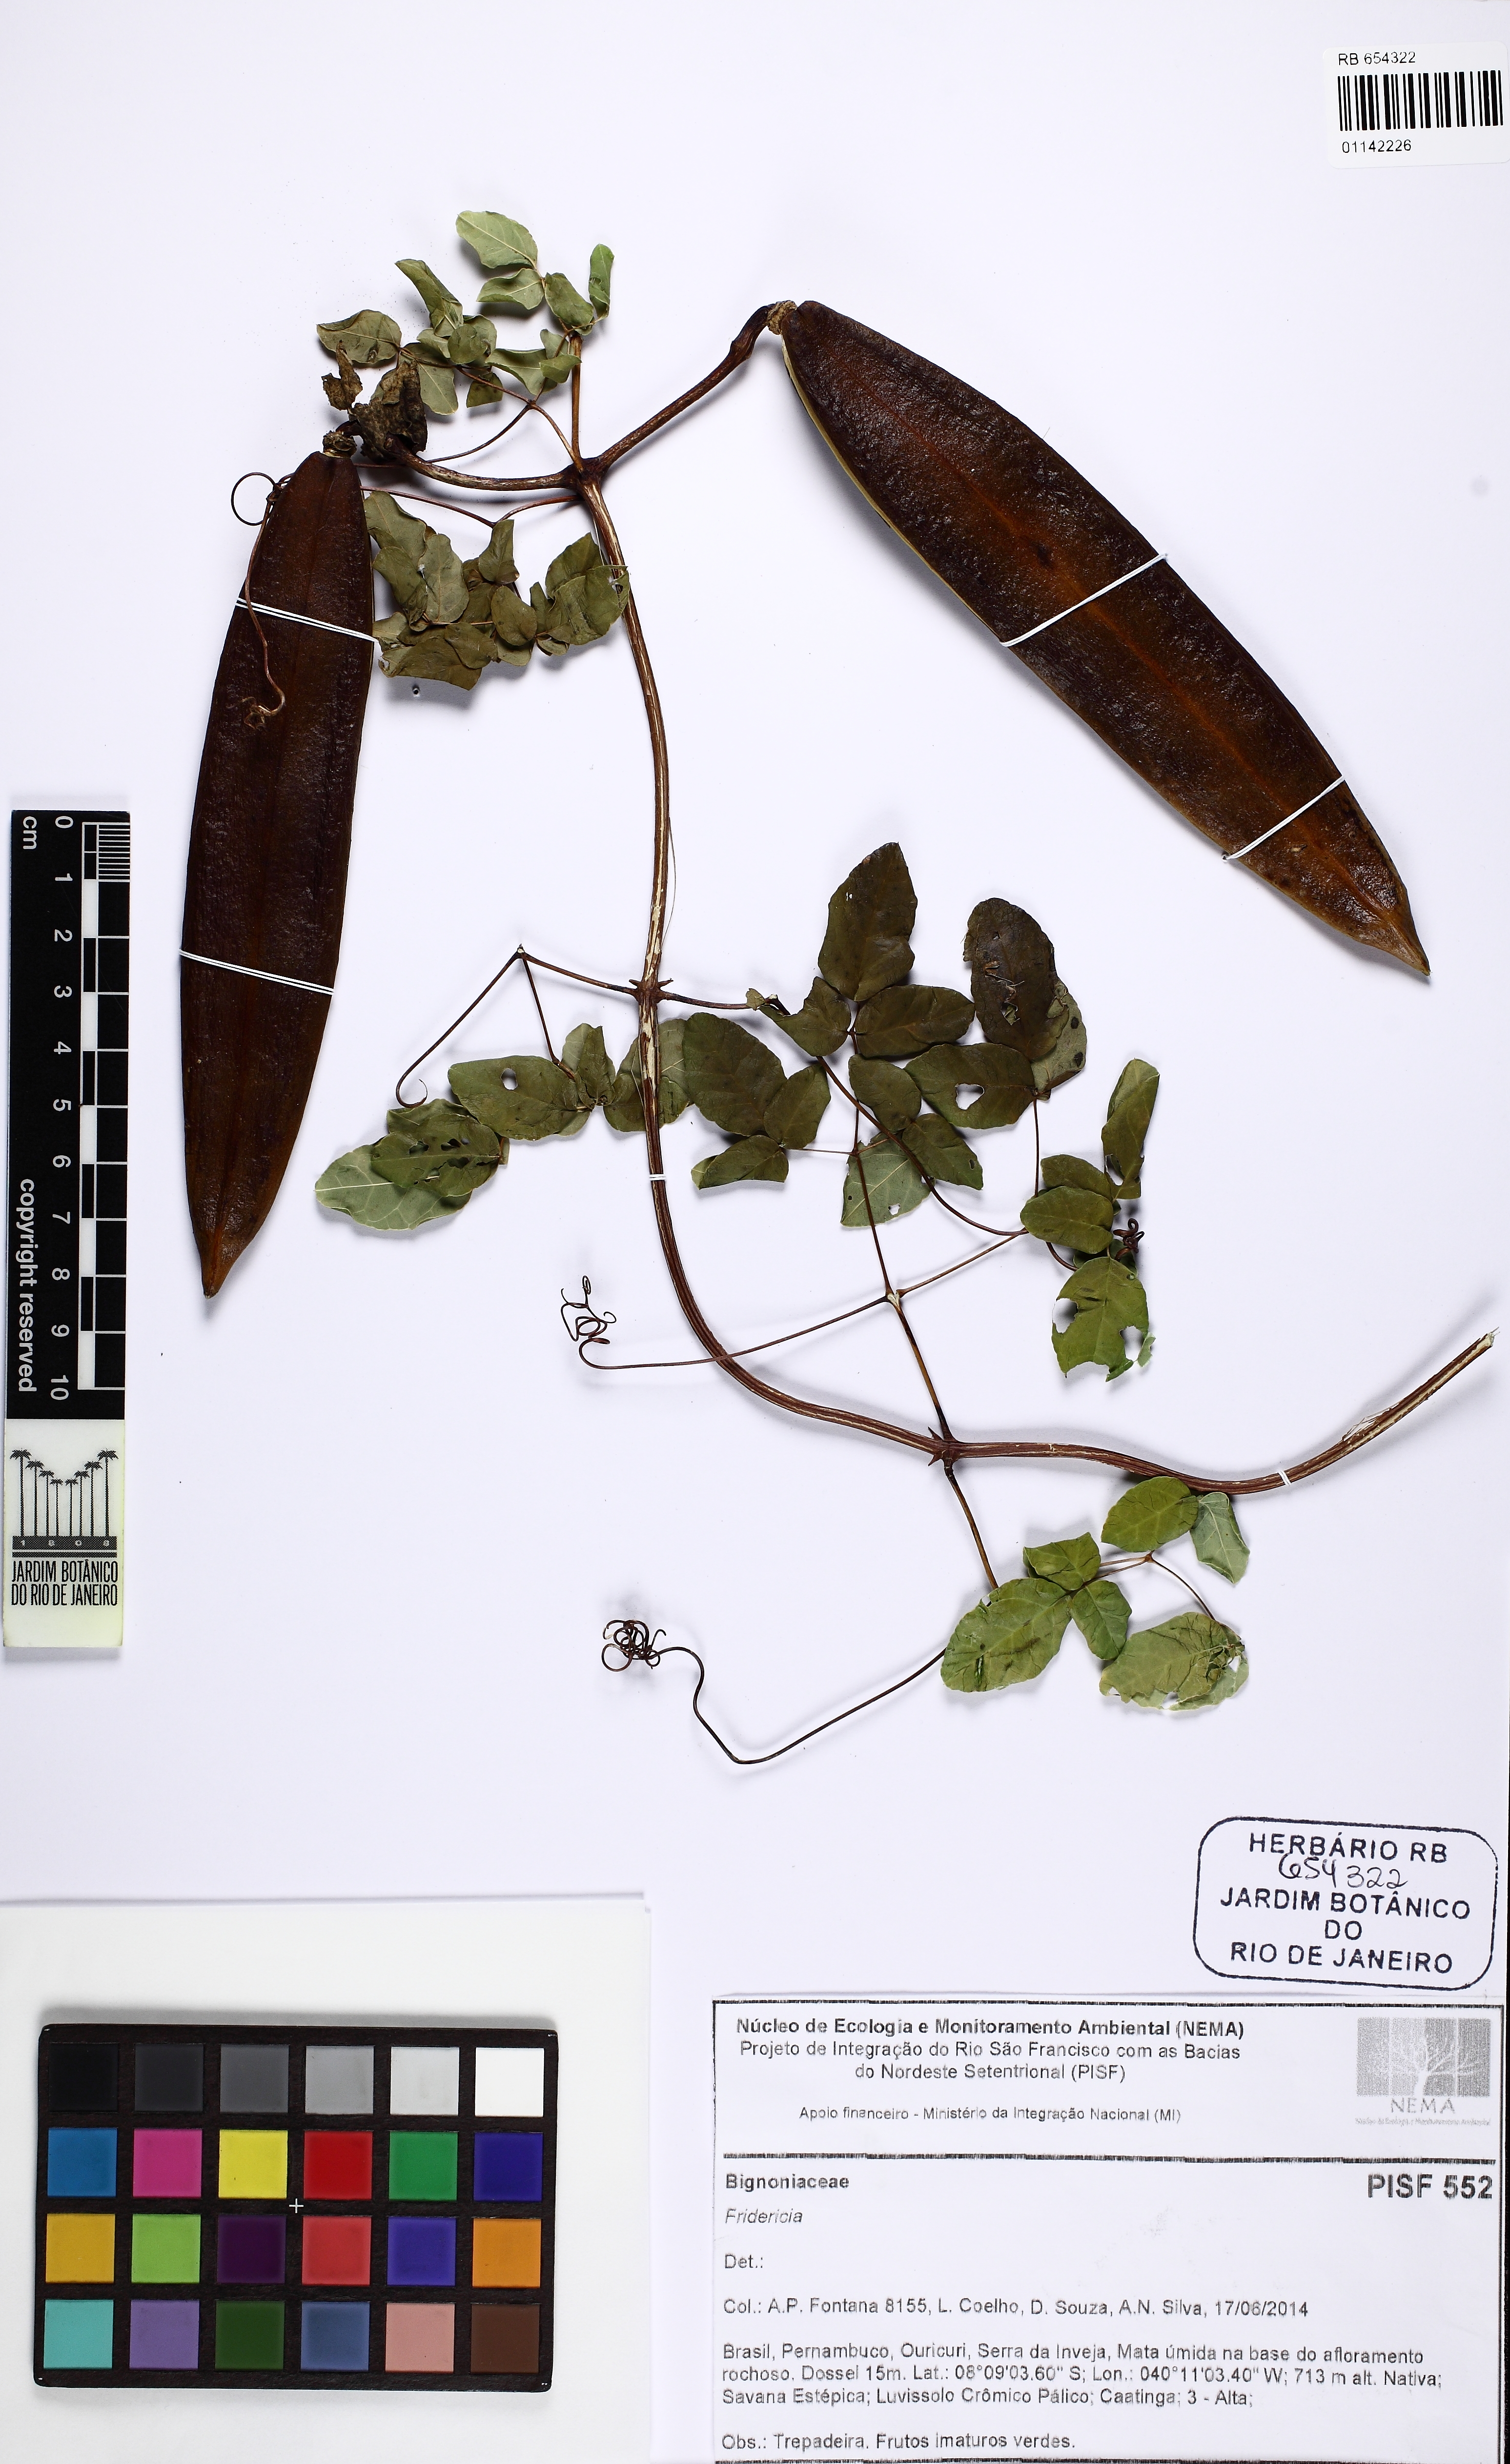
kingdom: Plantae
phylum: Tracheophyta
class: Magnoliopsida
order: Lamiales
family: Bignoniaceae
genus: Adenocalymma
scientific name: Adenocalymma candolleanum
